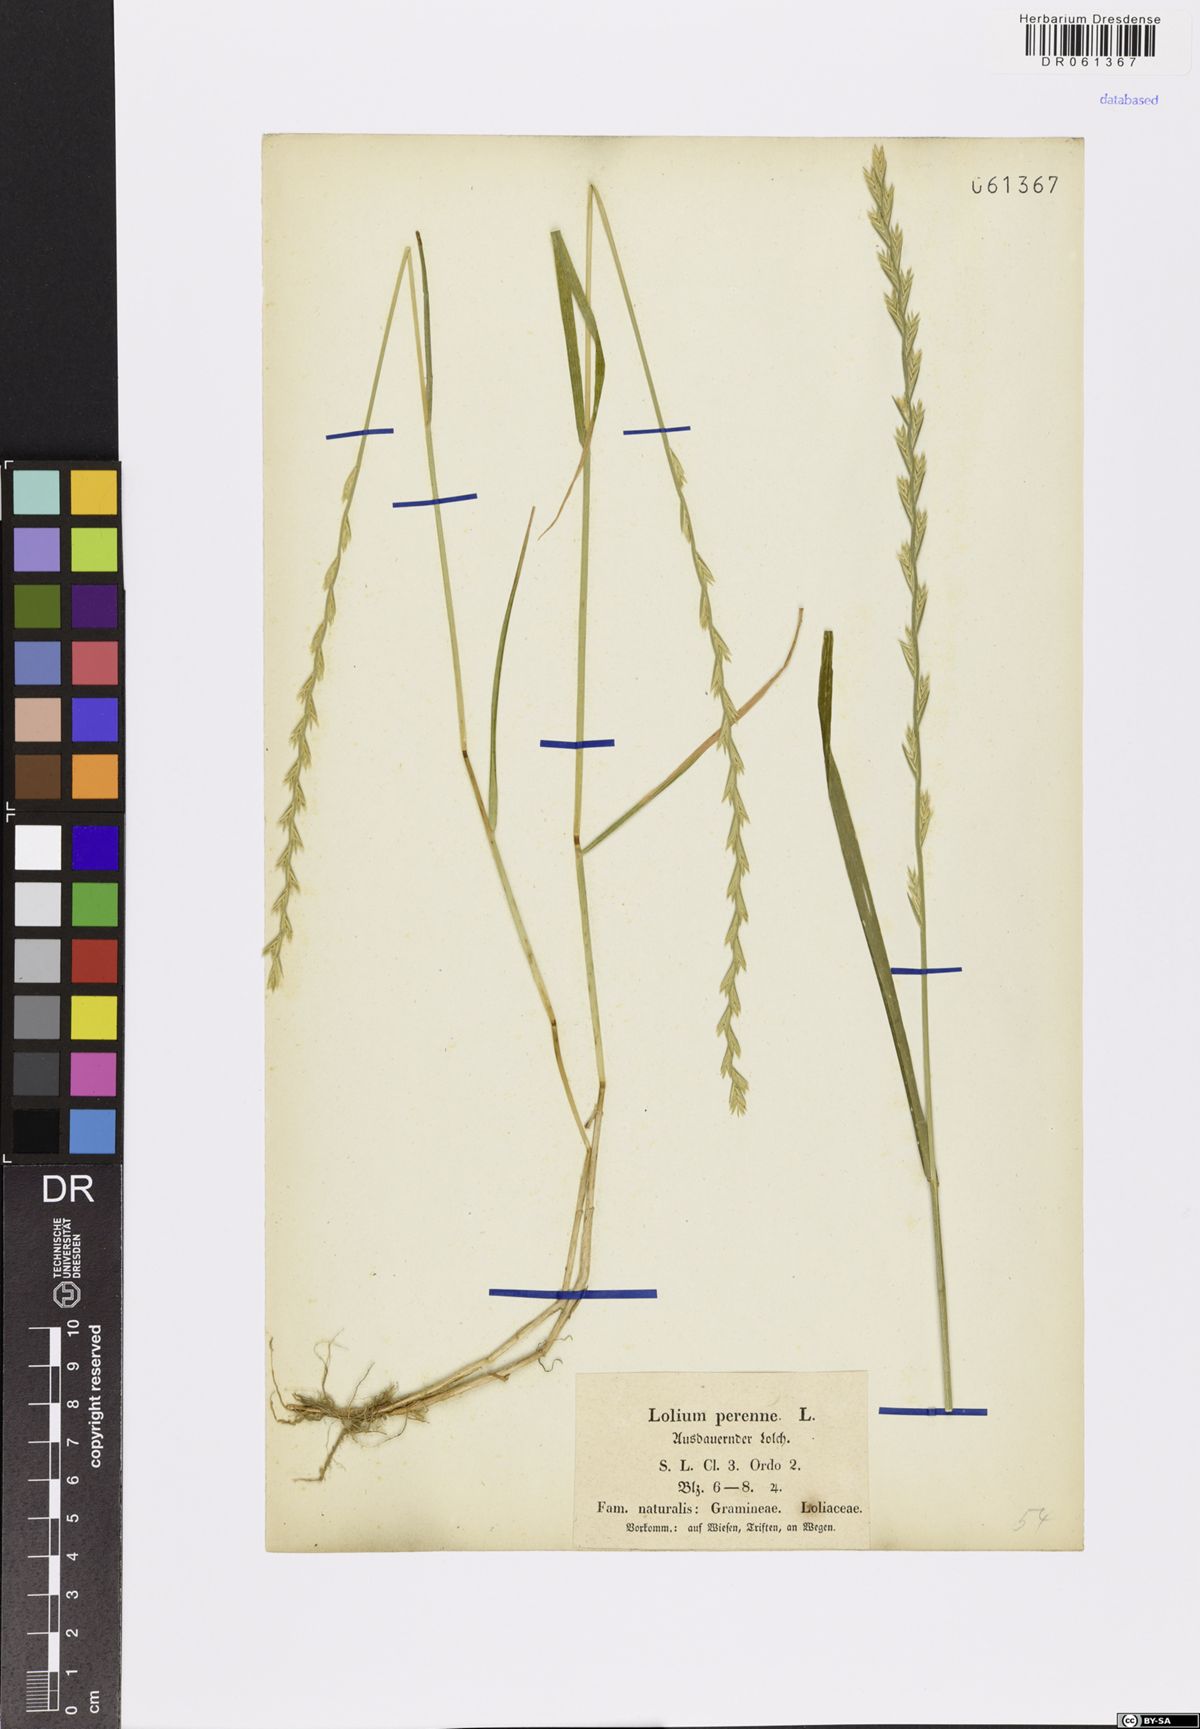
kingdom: Plantae
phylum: Tracheophyta
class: Liliopsida
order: Poales
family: Poaceae
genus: Lolium
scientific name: Lolium perenne
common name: Perennial ryegrass
